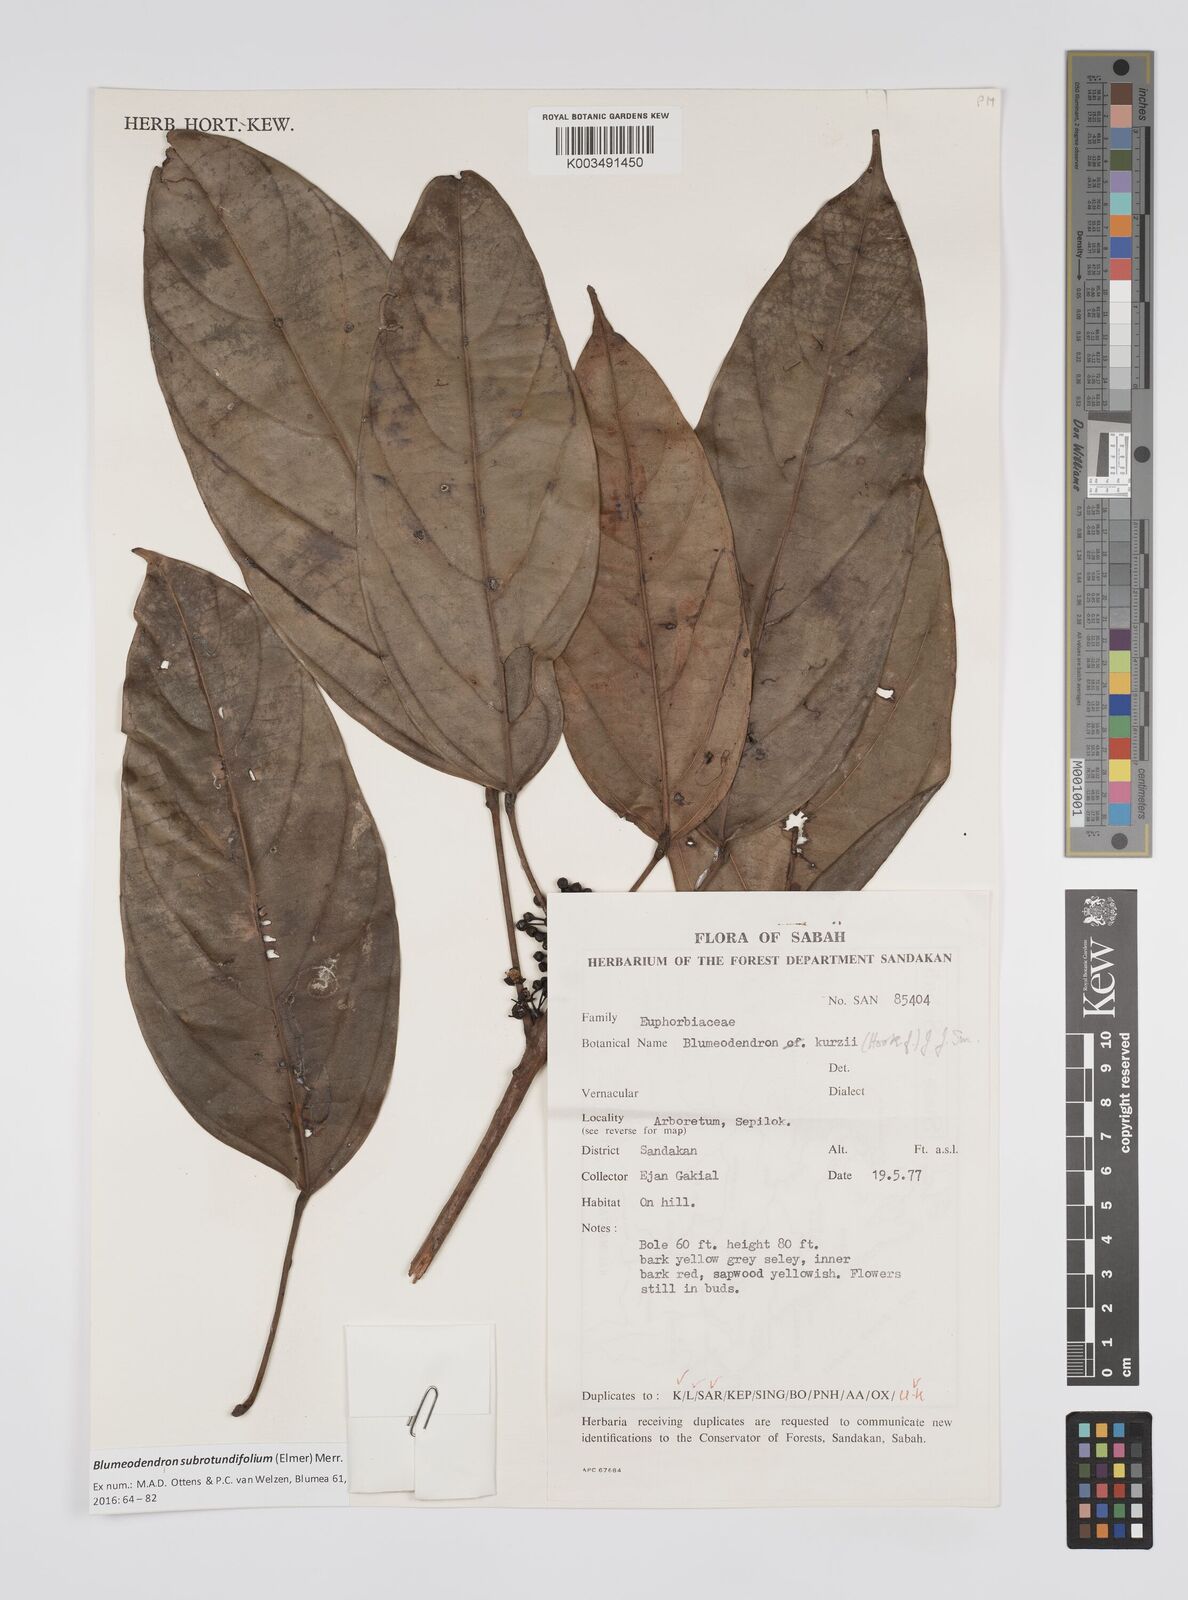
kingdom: Plantae
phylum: Tracheophyta
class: Magnoliopsida
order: Malpighiales
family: Euphorbiaceae
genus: Blumeodendron
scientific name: Blumeodendron subrotundifolium
